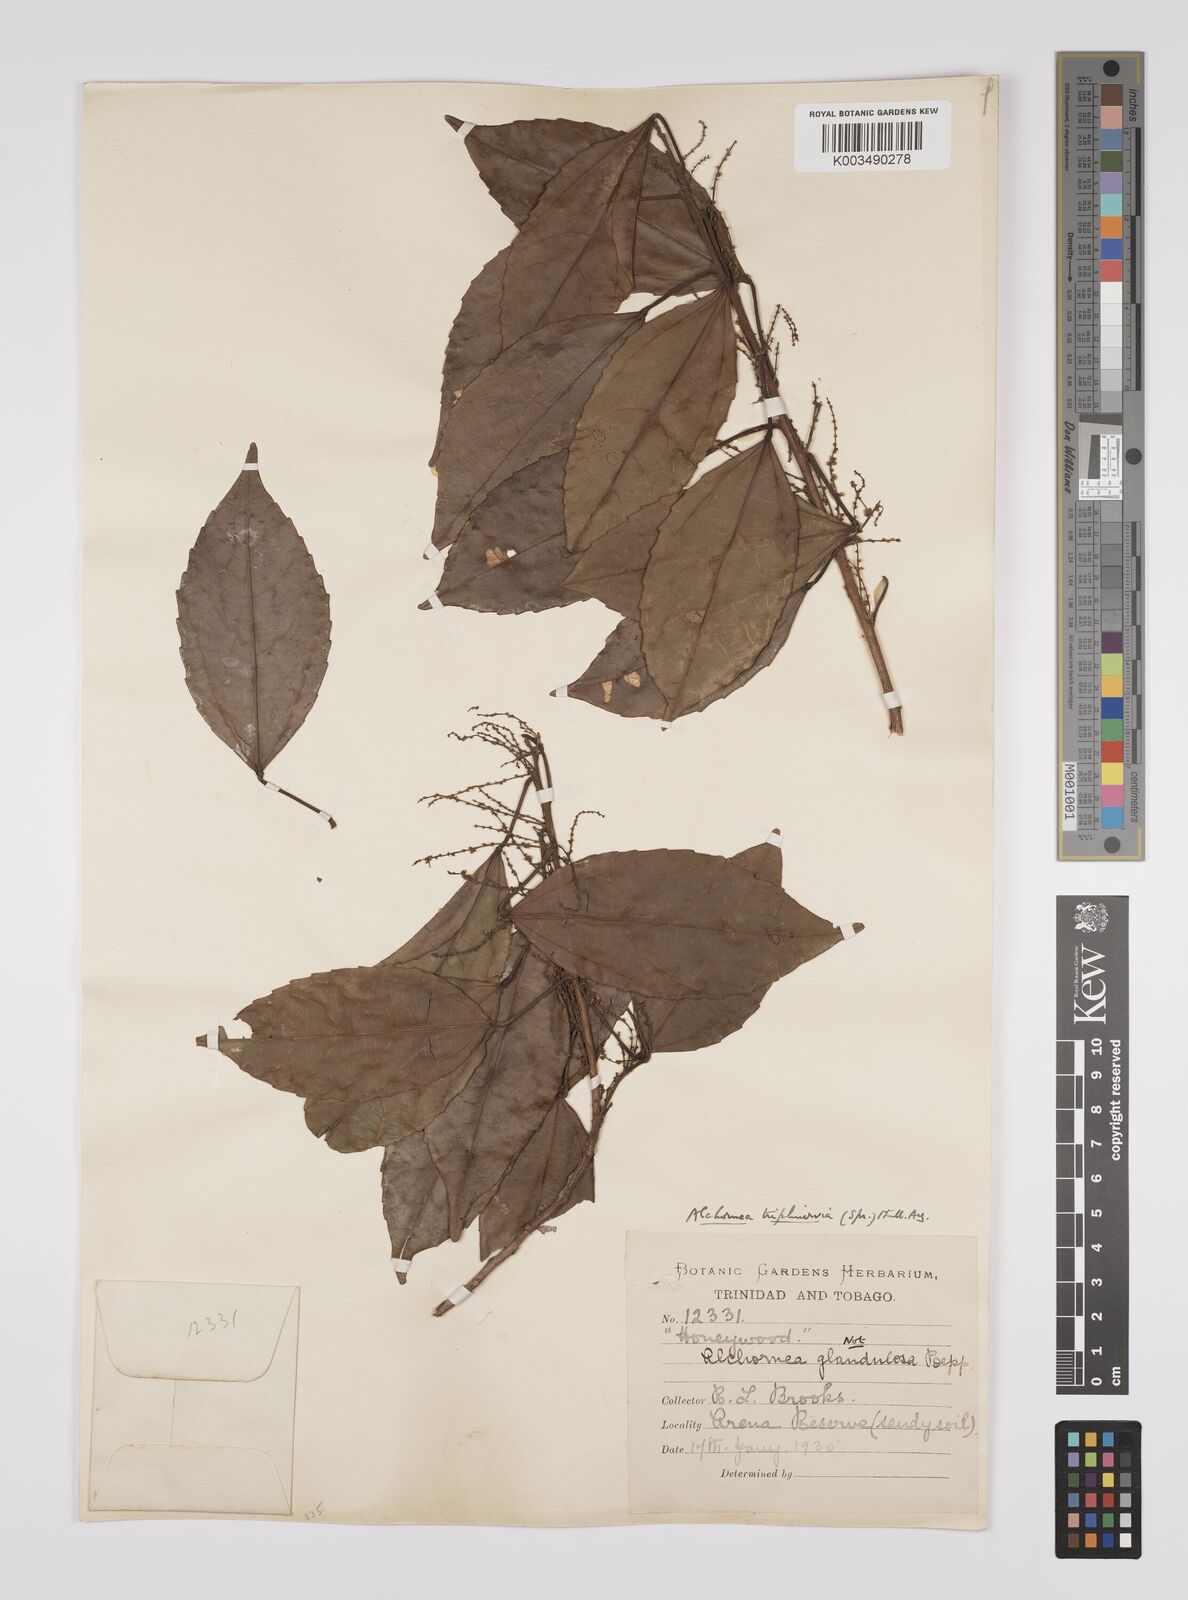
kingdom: Plantae
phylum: Tracheophyta
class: Magnoliopsida
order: Malpighiales
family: Euphorbiaceae
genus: Alchornea
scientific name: Alchornea triplinervia
